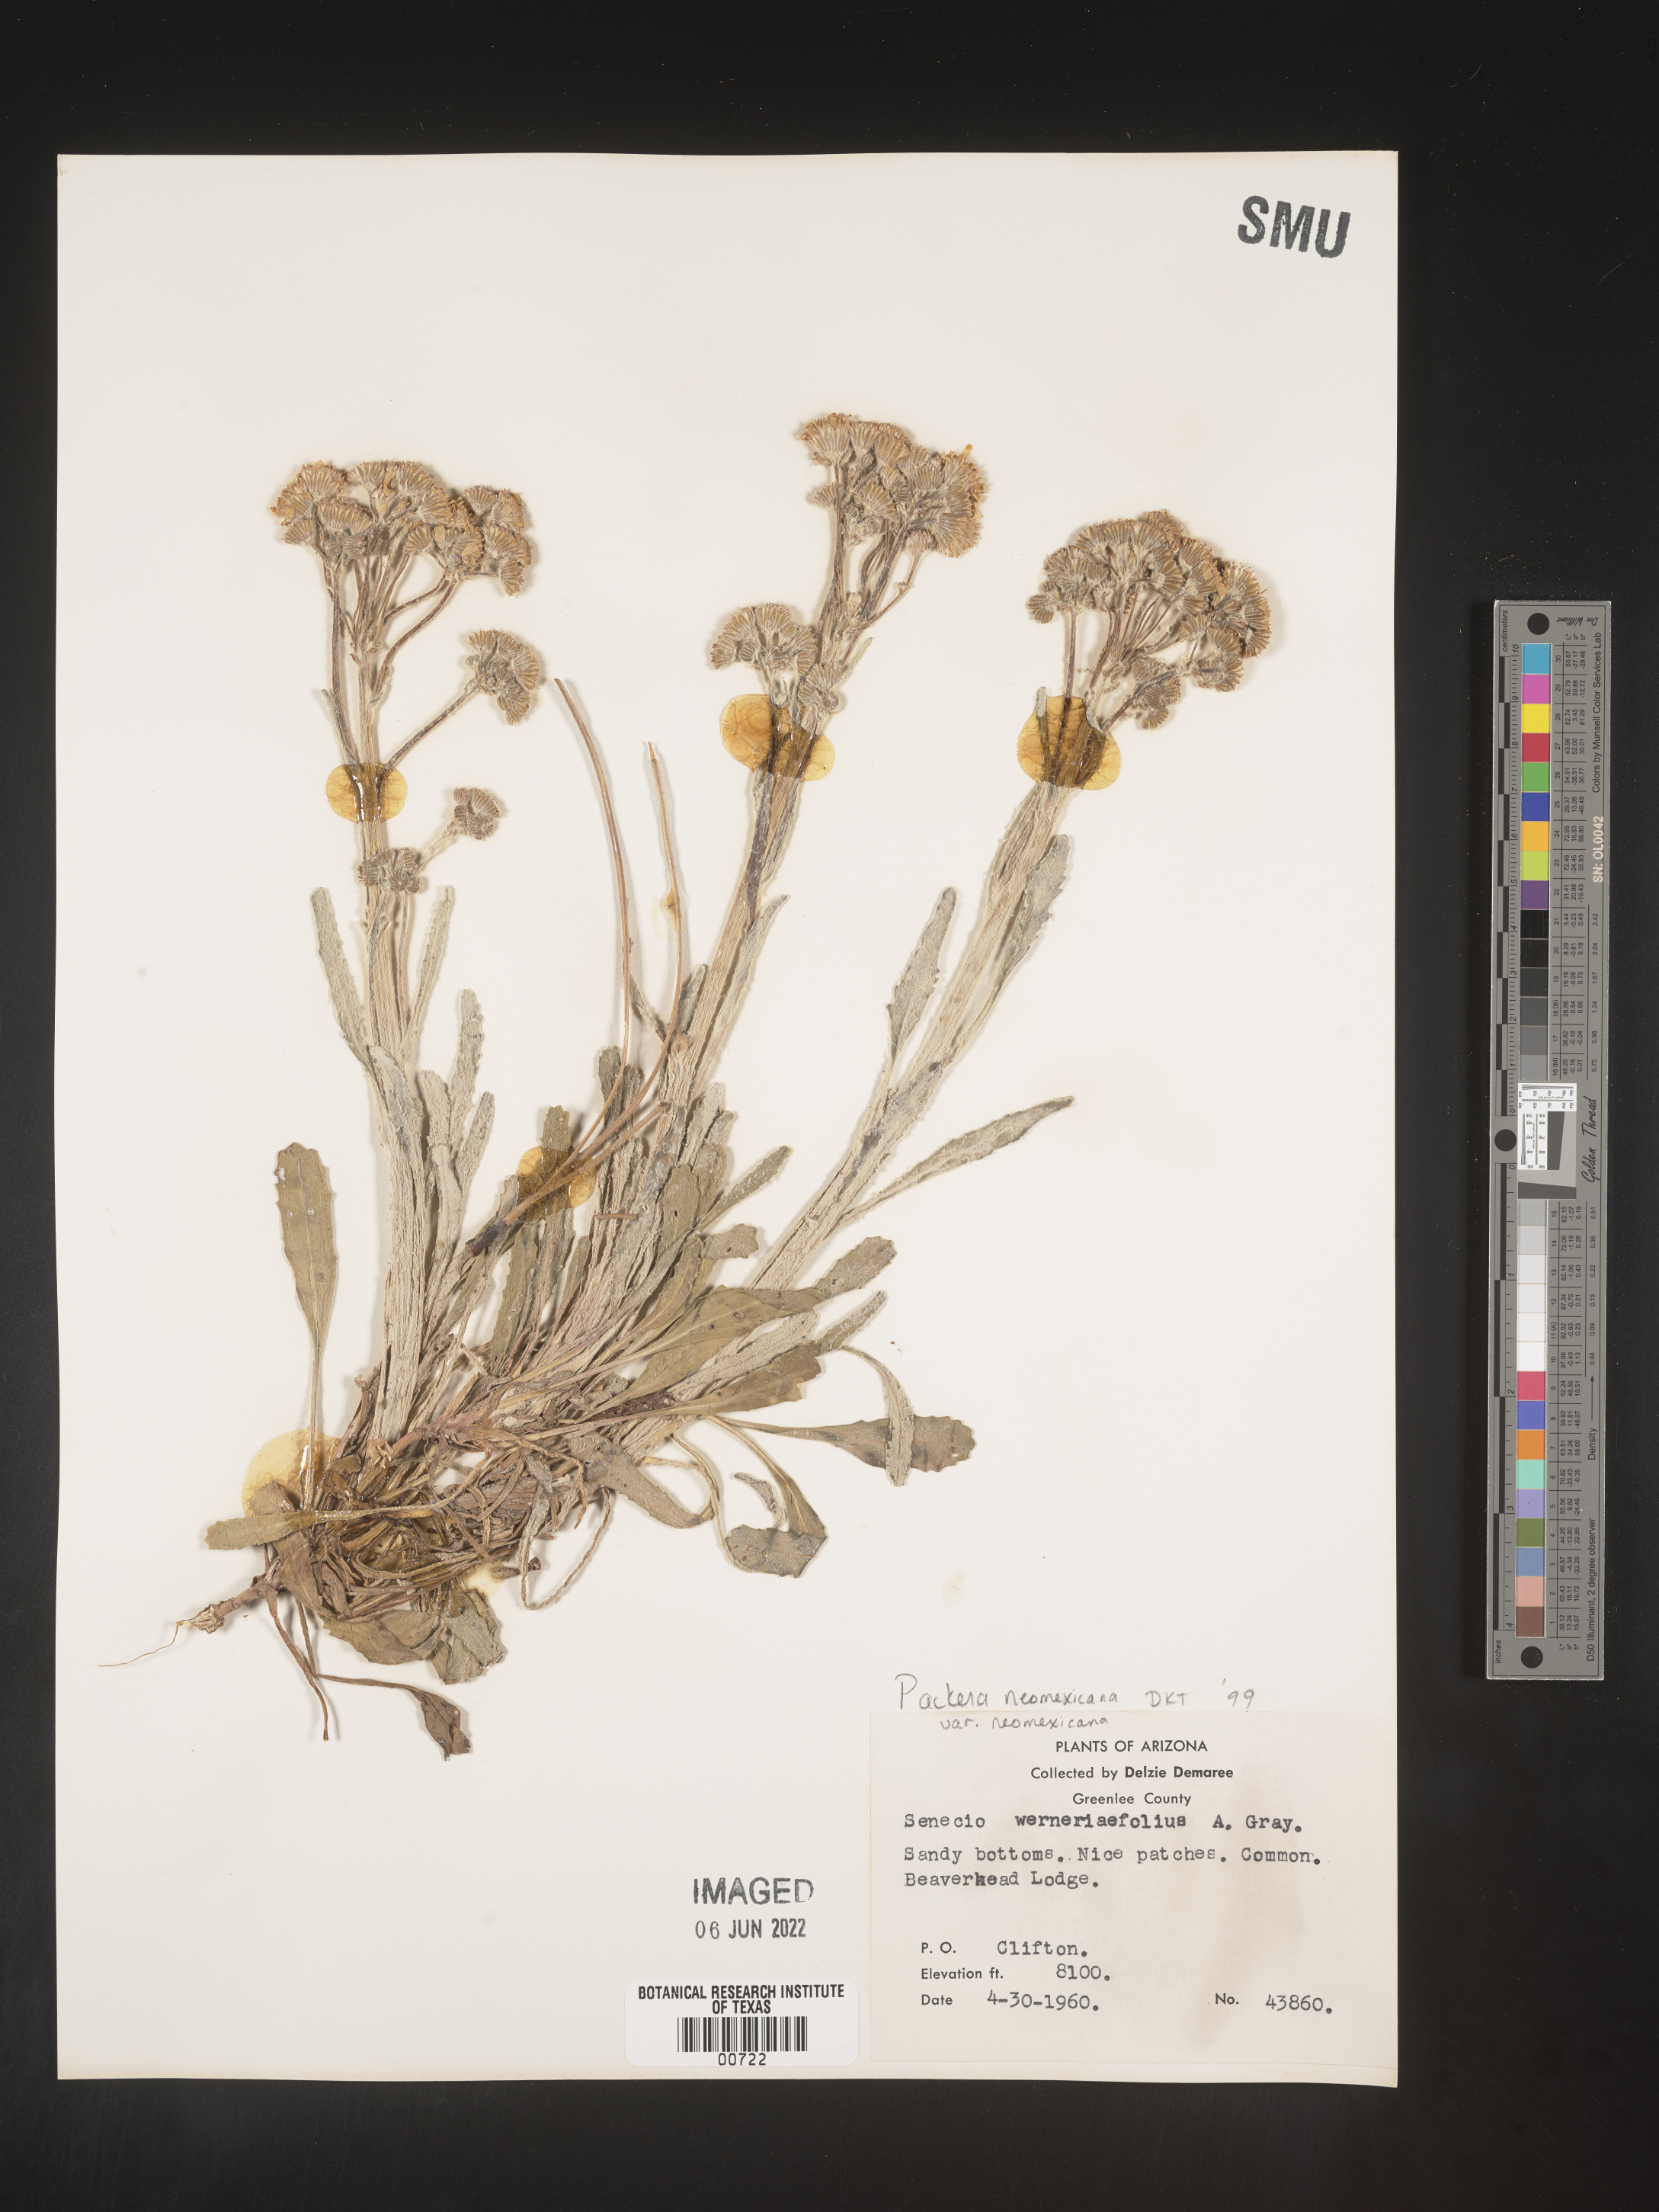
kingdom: Plantae
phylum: Tracheophyta
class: Magnoliopsida
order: Asterales
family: Asteraceae
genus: Packera
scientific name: Packera neomexicana
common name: New mexico butterweed
